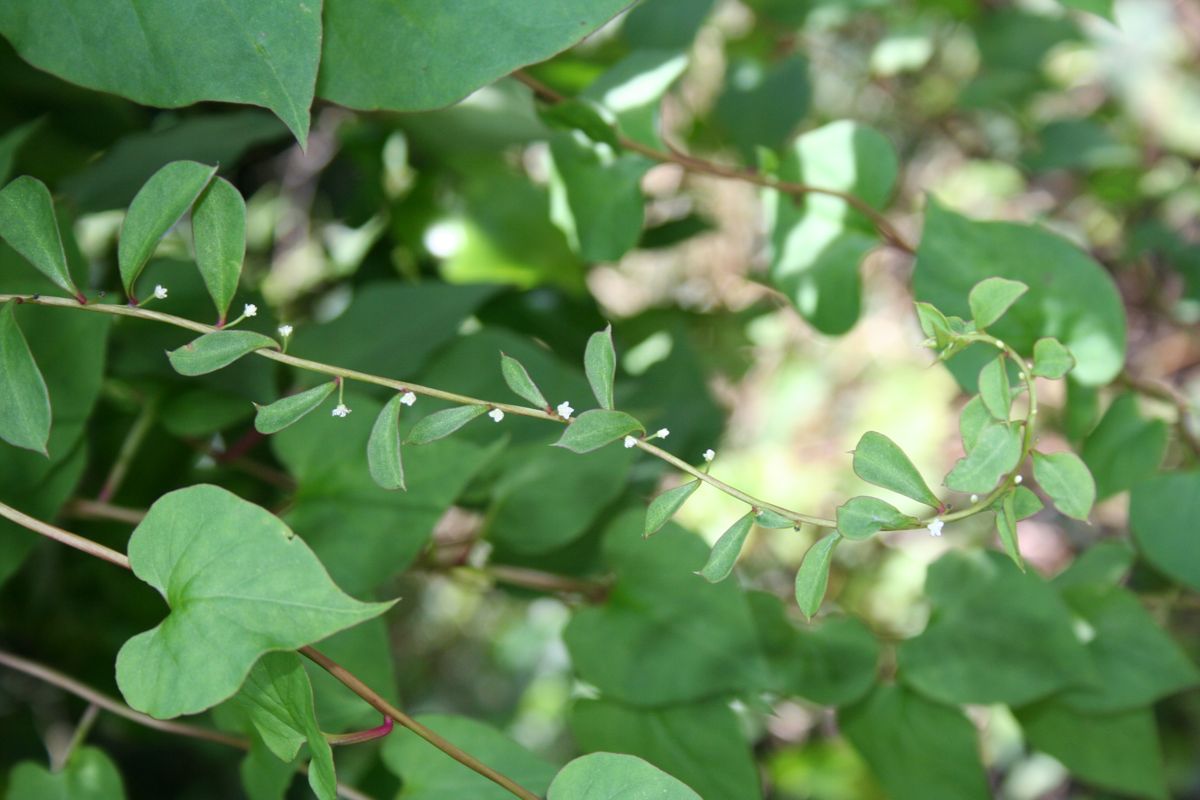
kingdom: Plantae
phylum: Tracheophyta
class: Magnoliopsida
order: Caryophyllales
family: Basellaceae
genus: Anredera
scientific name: Anredera
